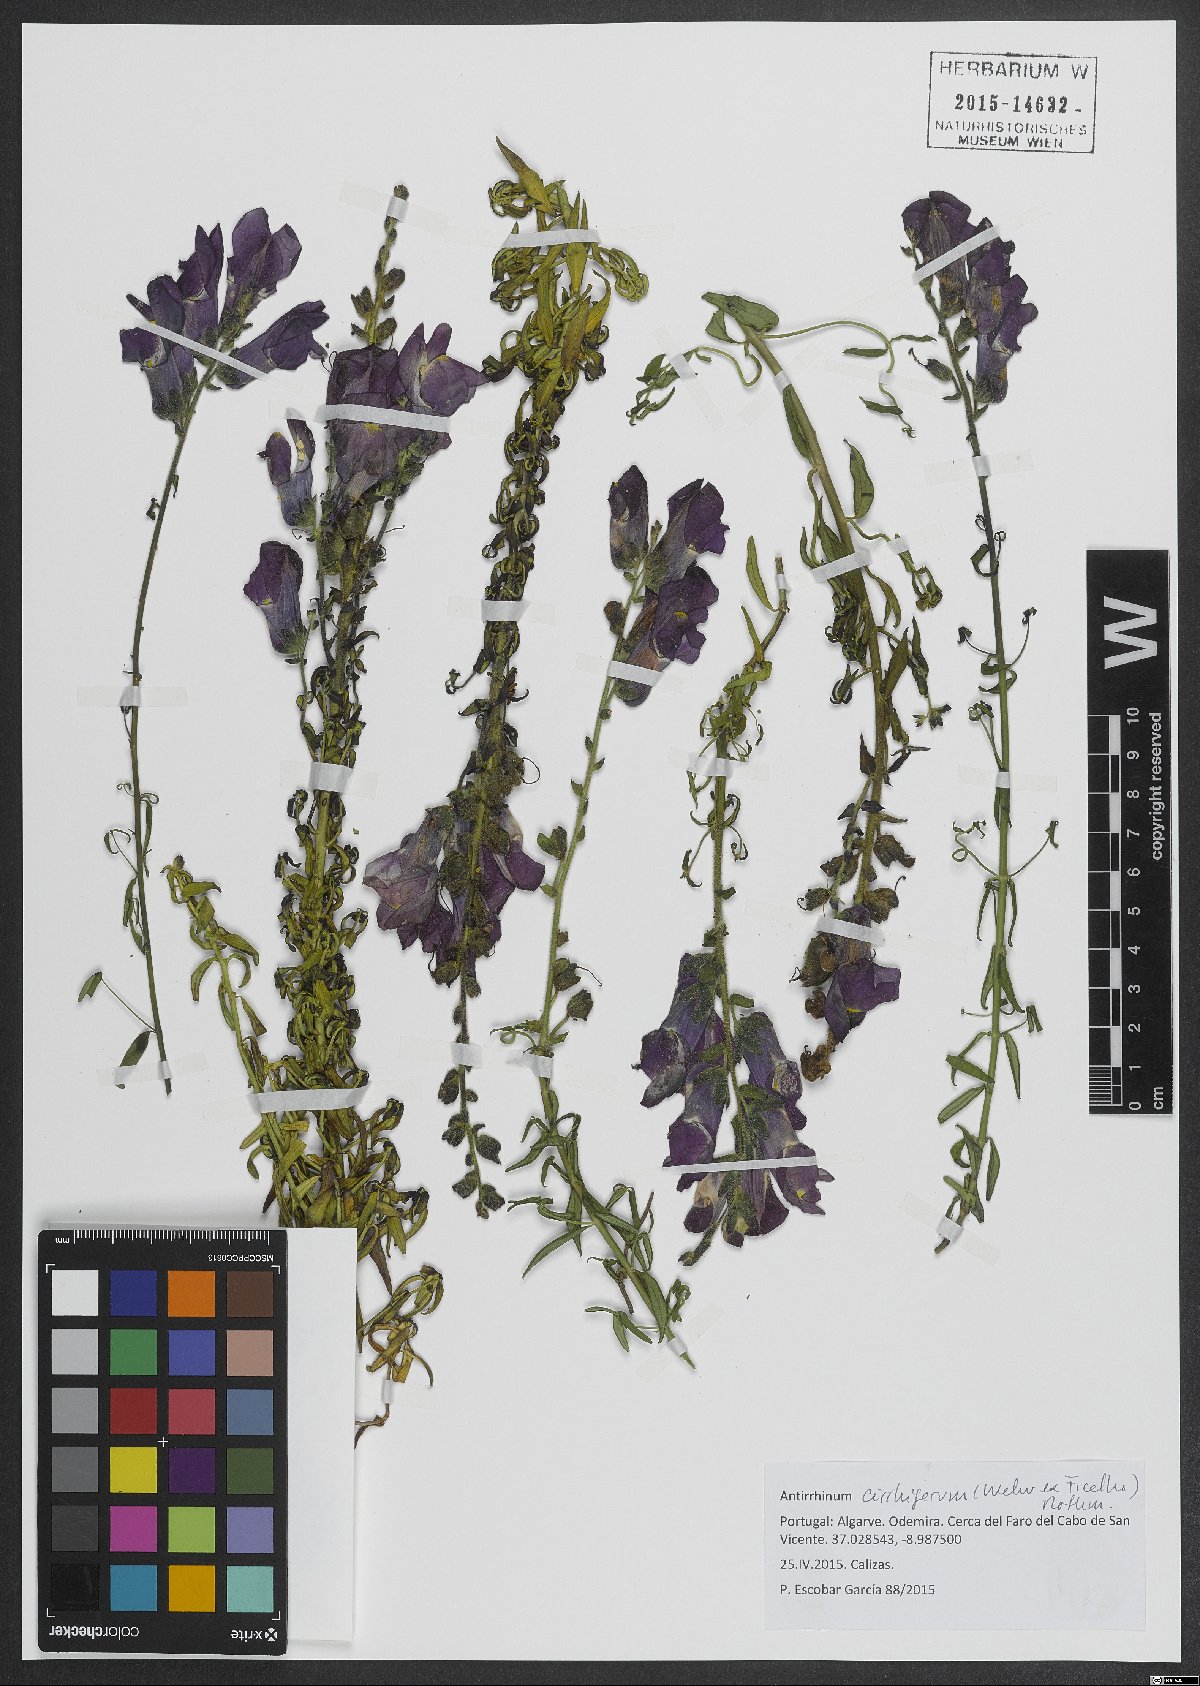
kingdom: Plantae
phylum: Tracheophyta
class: Magnoliopsida
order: Lamiales
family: Plantaginaceae
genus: Antirrhinum
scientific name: Antirrhinum cirrhigerum
